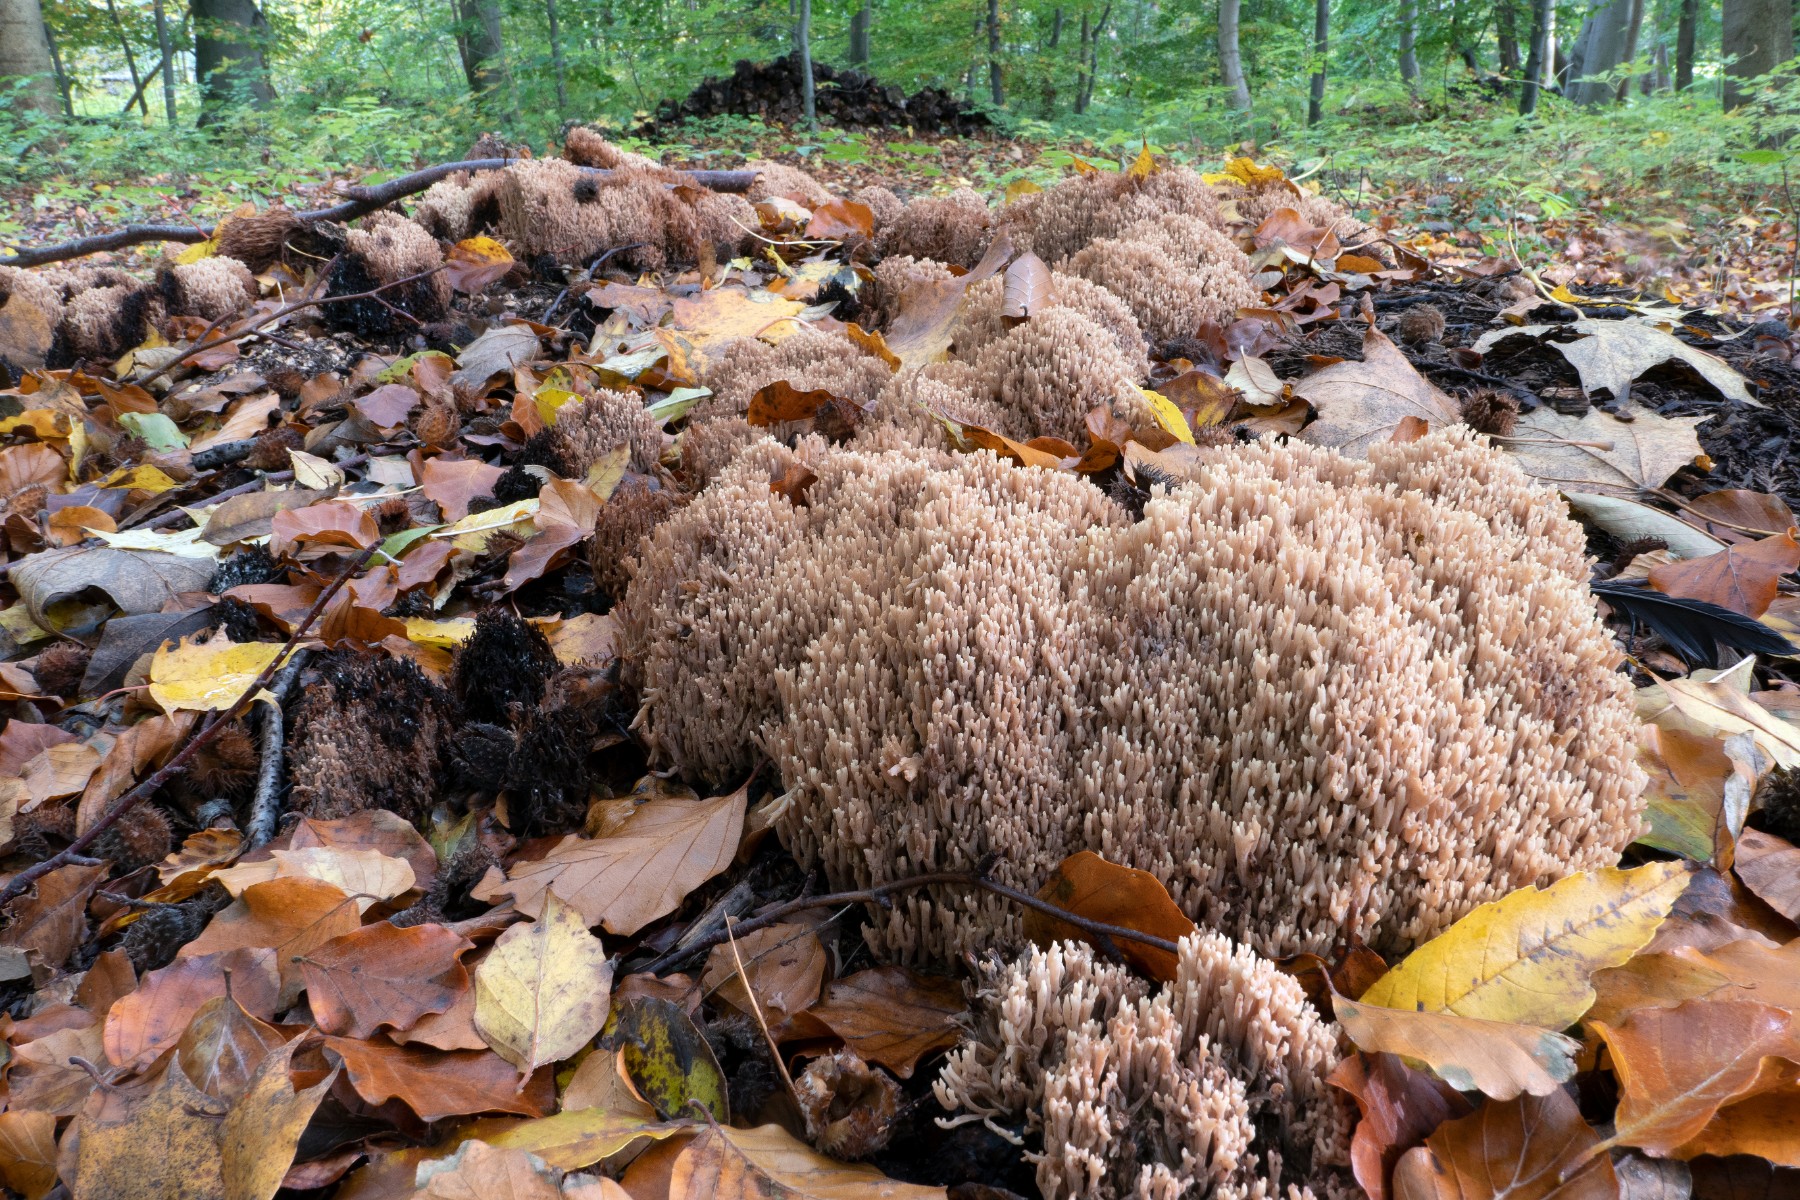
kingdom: Fungi
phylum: Basidiomycota
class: Agaricomycetes
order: Gomphales
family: Gomphaceae
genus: Ramaria
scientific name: Ramaria stricta
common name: rank koralsvamp
